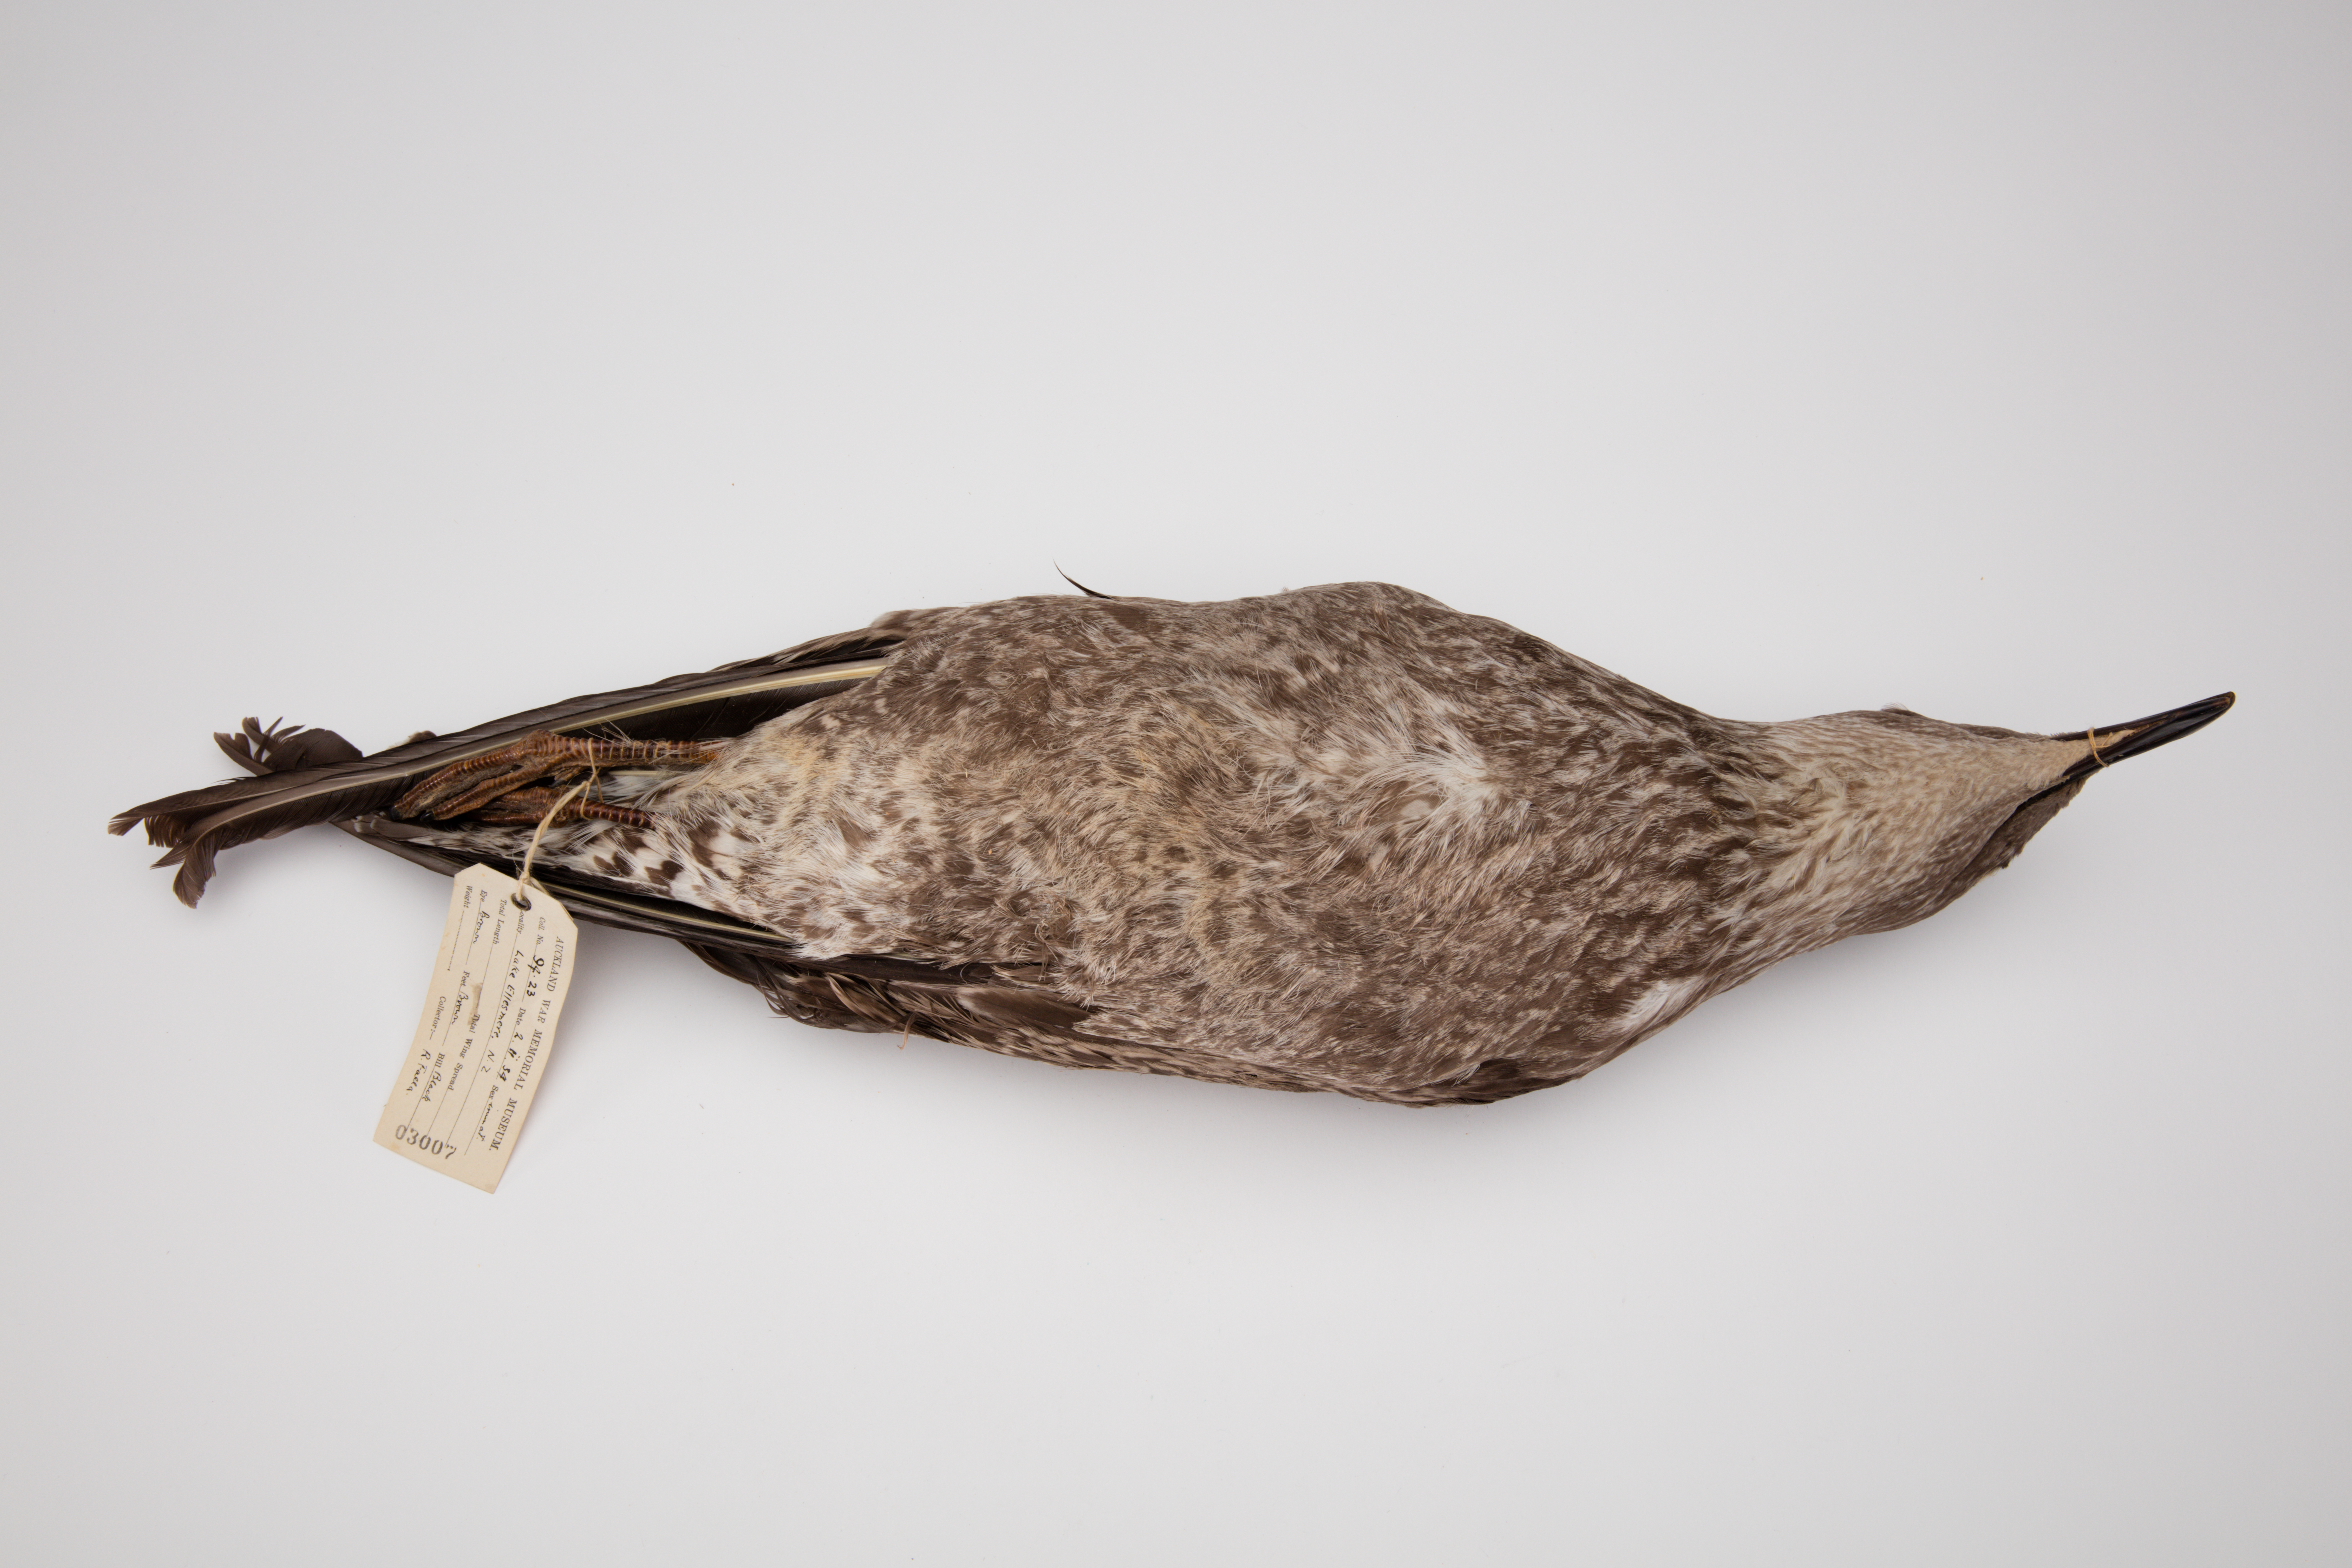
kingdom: Animalia
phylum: Chordata
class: Aves
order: Charadriiformes
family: Laridae
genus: Larus
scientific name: Larus dominicanus
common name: Kelp gull
